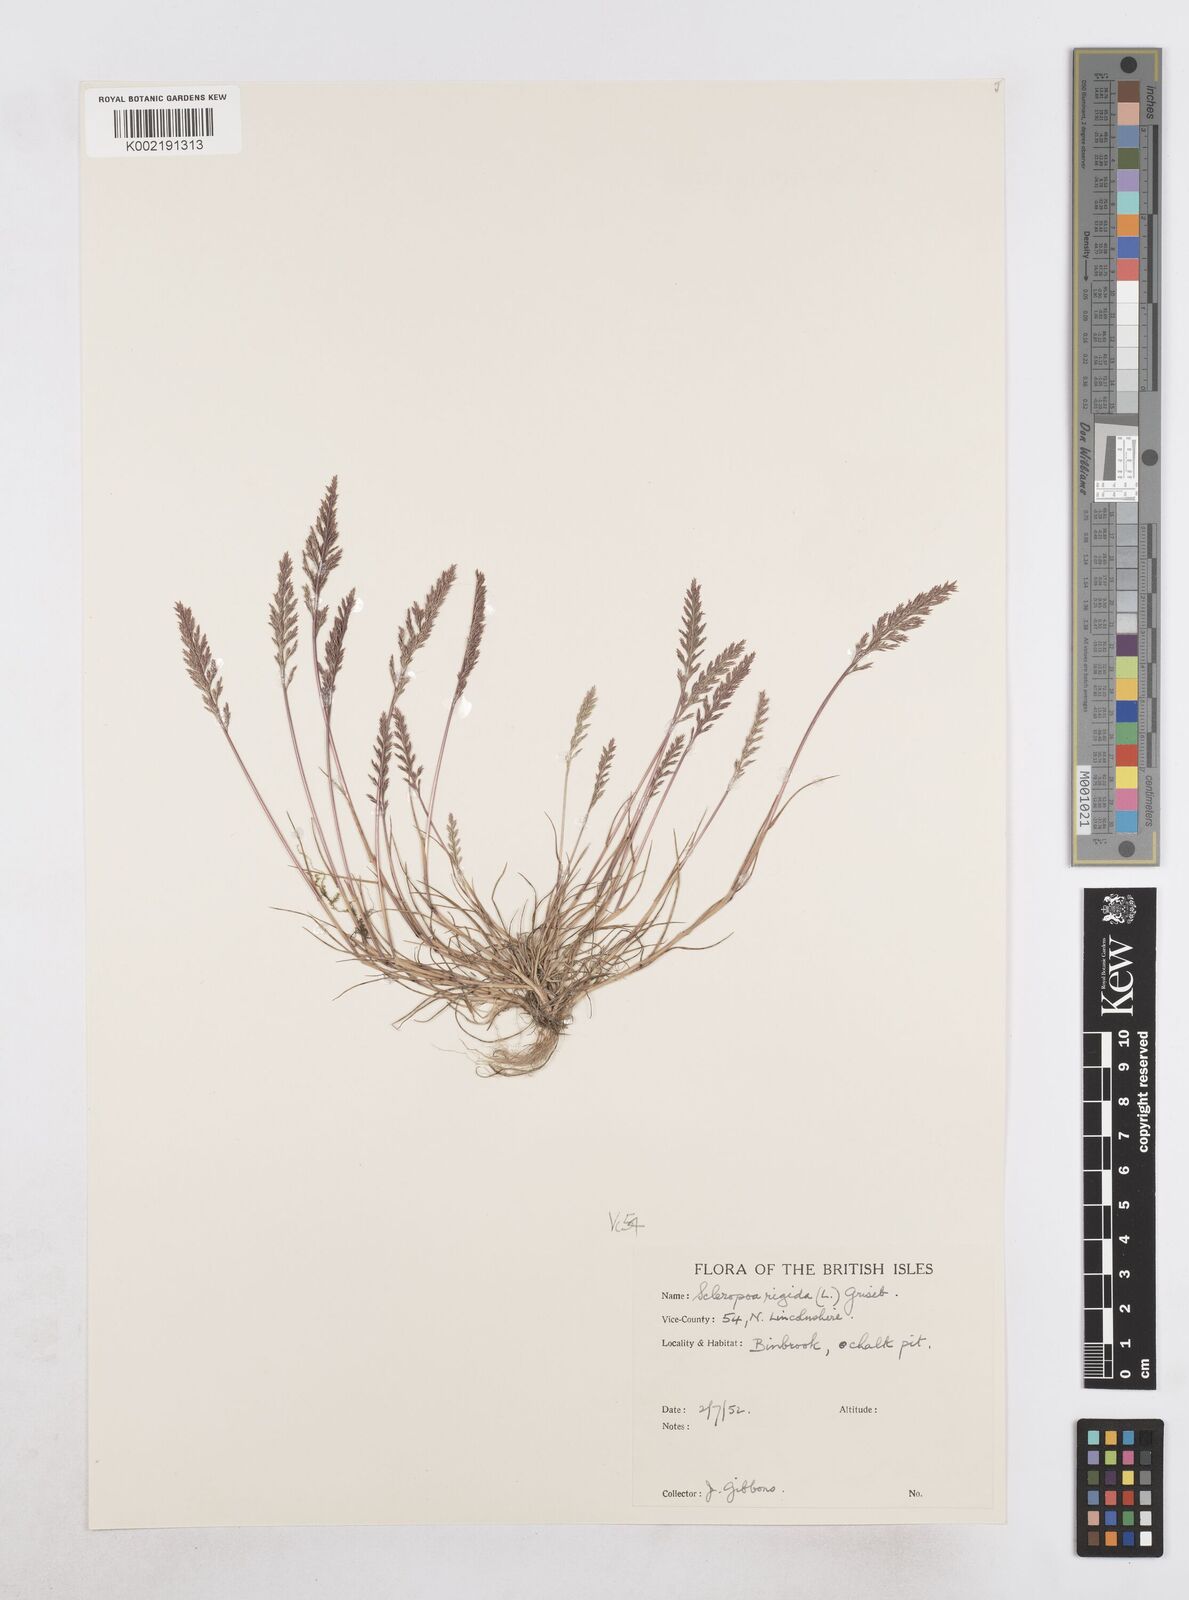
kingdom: Plantae
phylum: Tracheophyta
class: Liliopsida
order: Poales
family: Poaceae
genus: Catapodium
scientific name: Catapodium rigidum
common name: Fern-grass
